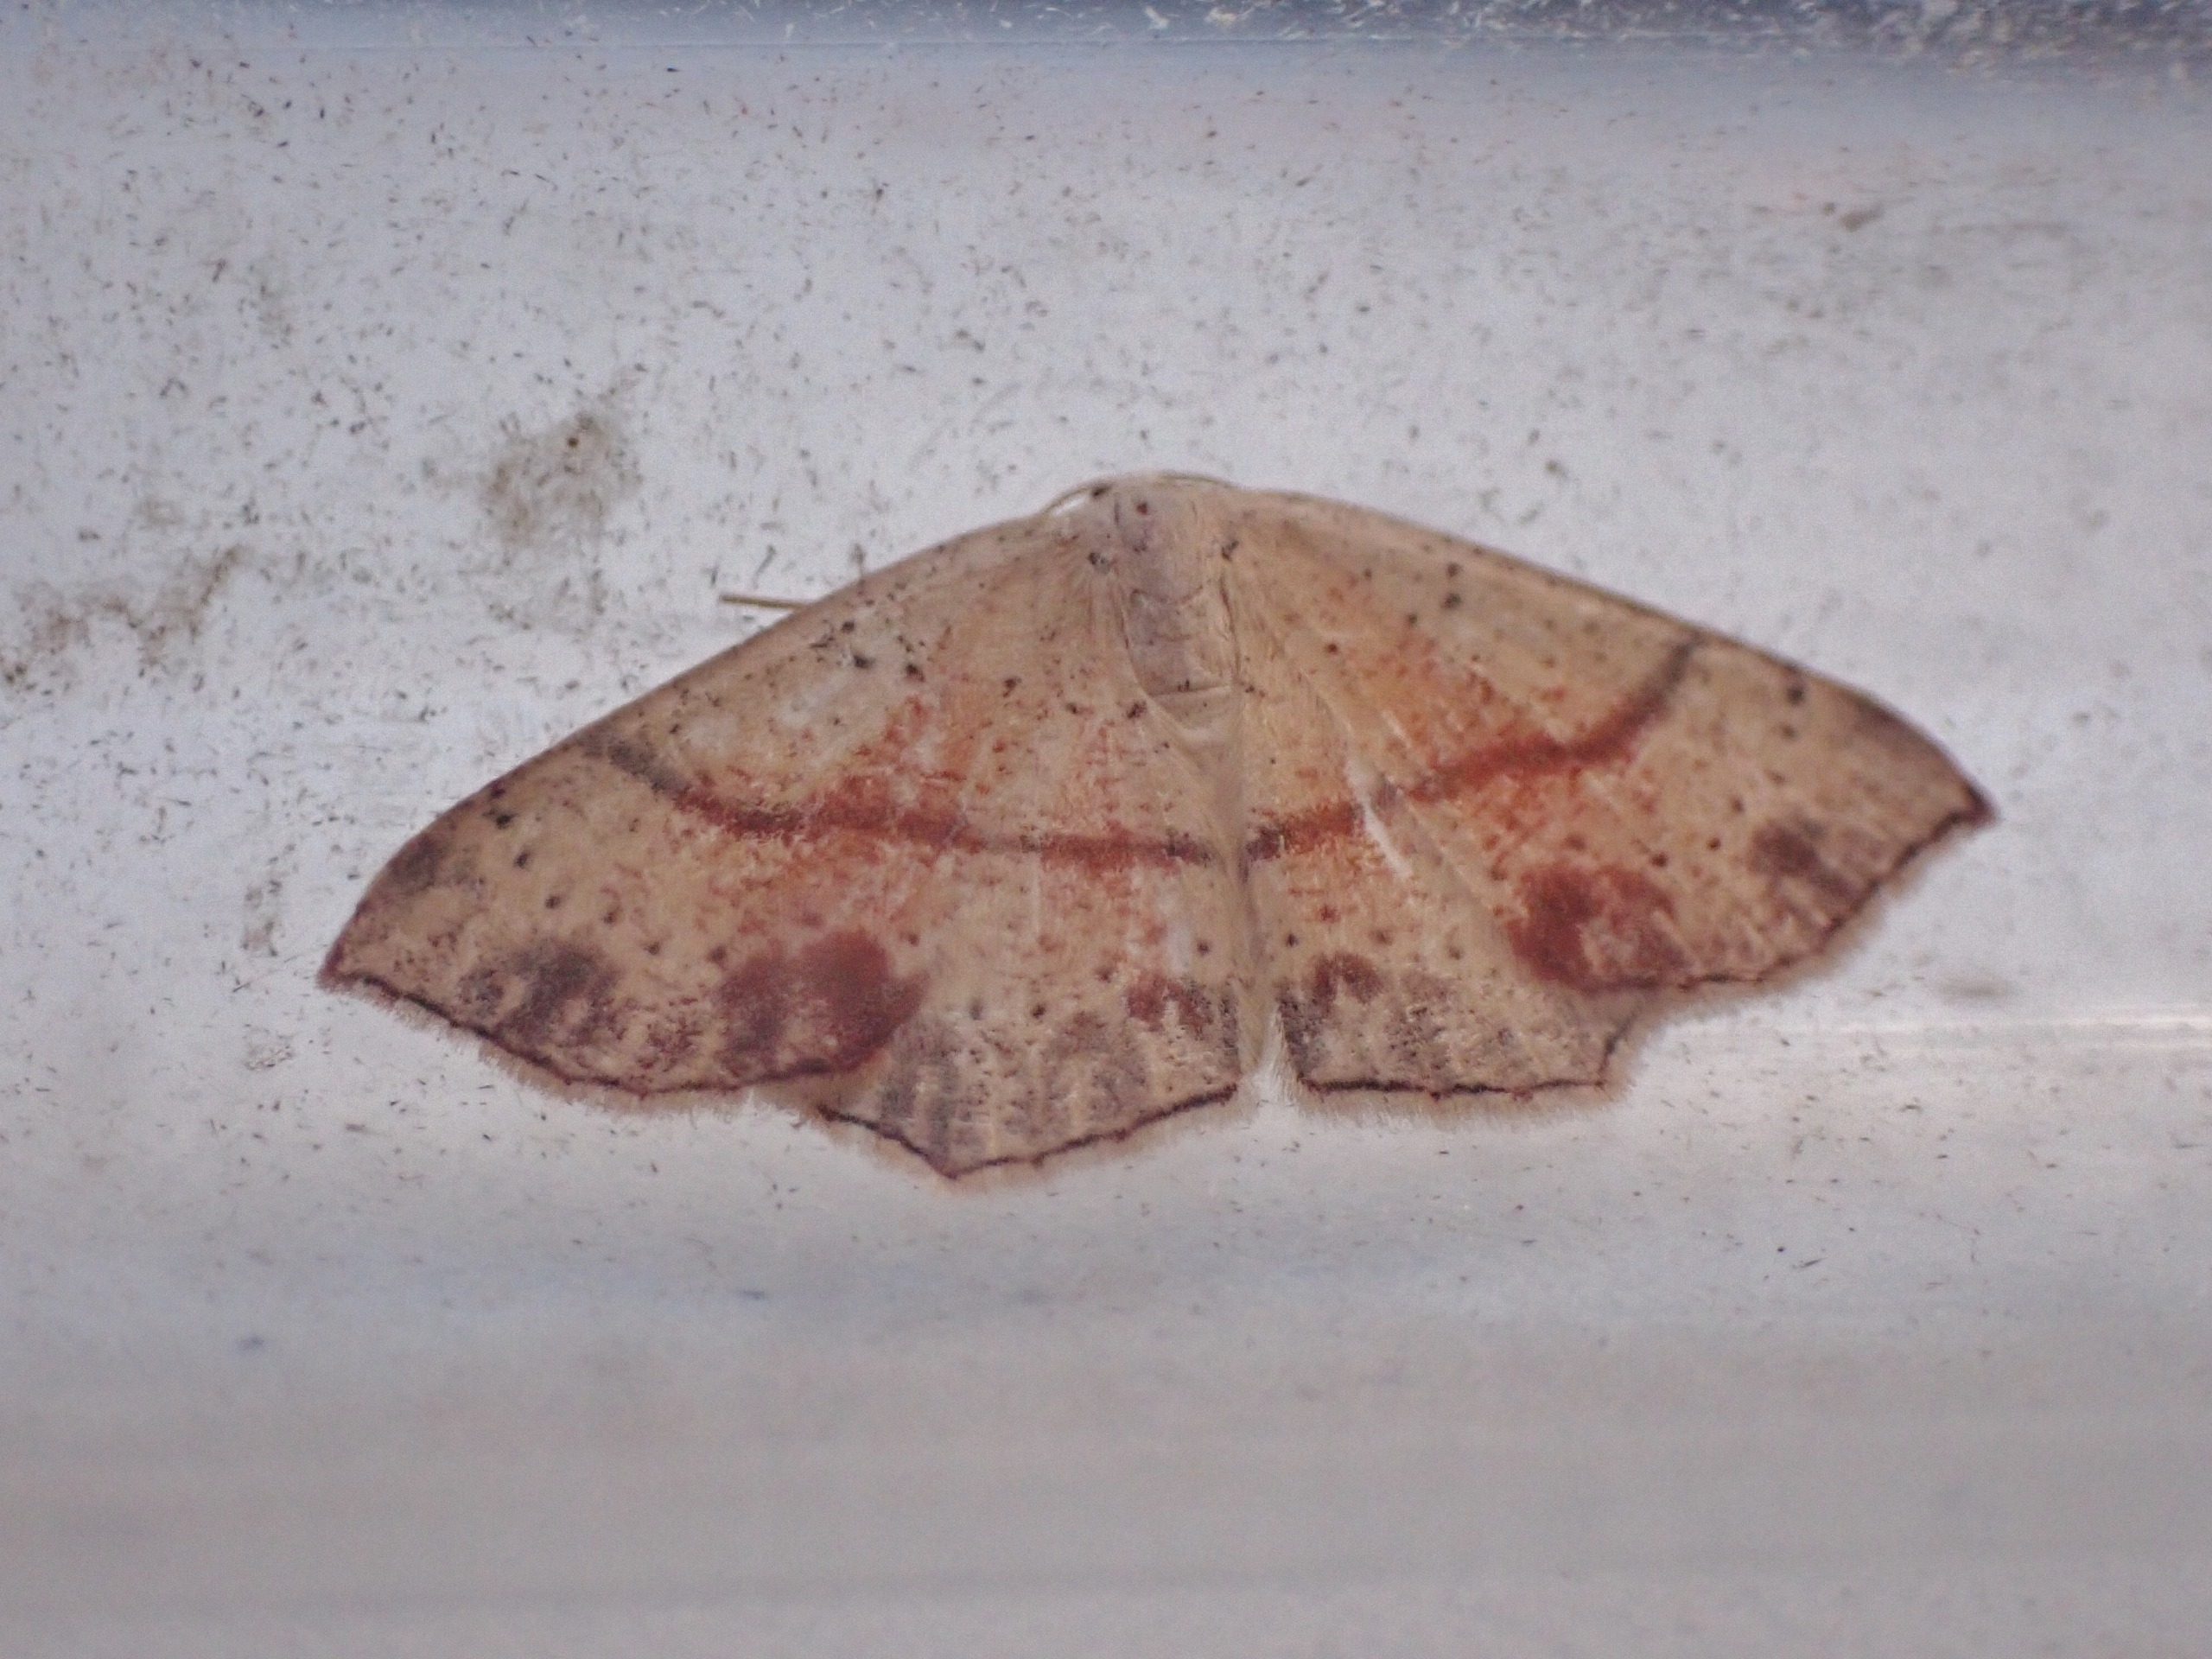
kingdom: Animalia
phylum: Arthropoda
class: Insecta
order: Lepidoptera
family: Geometridae
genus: Cyclophora
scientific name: Cyclophora punctaria
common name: Ege-bæltemåler
